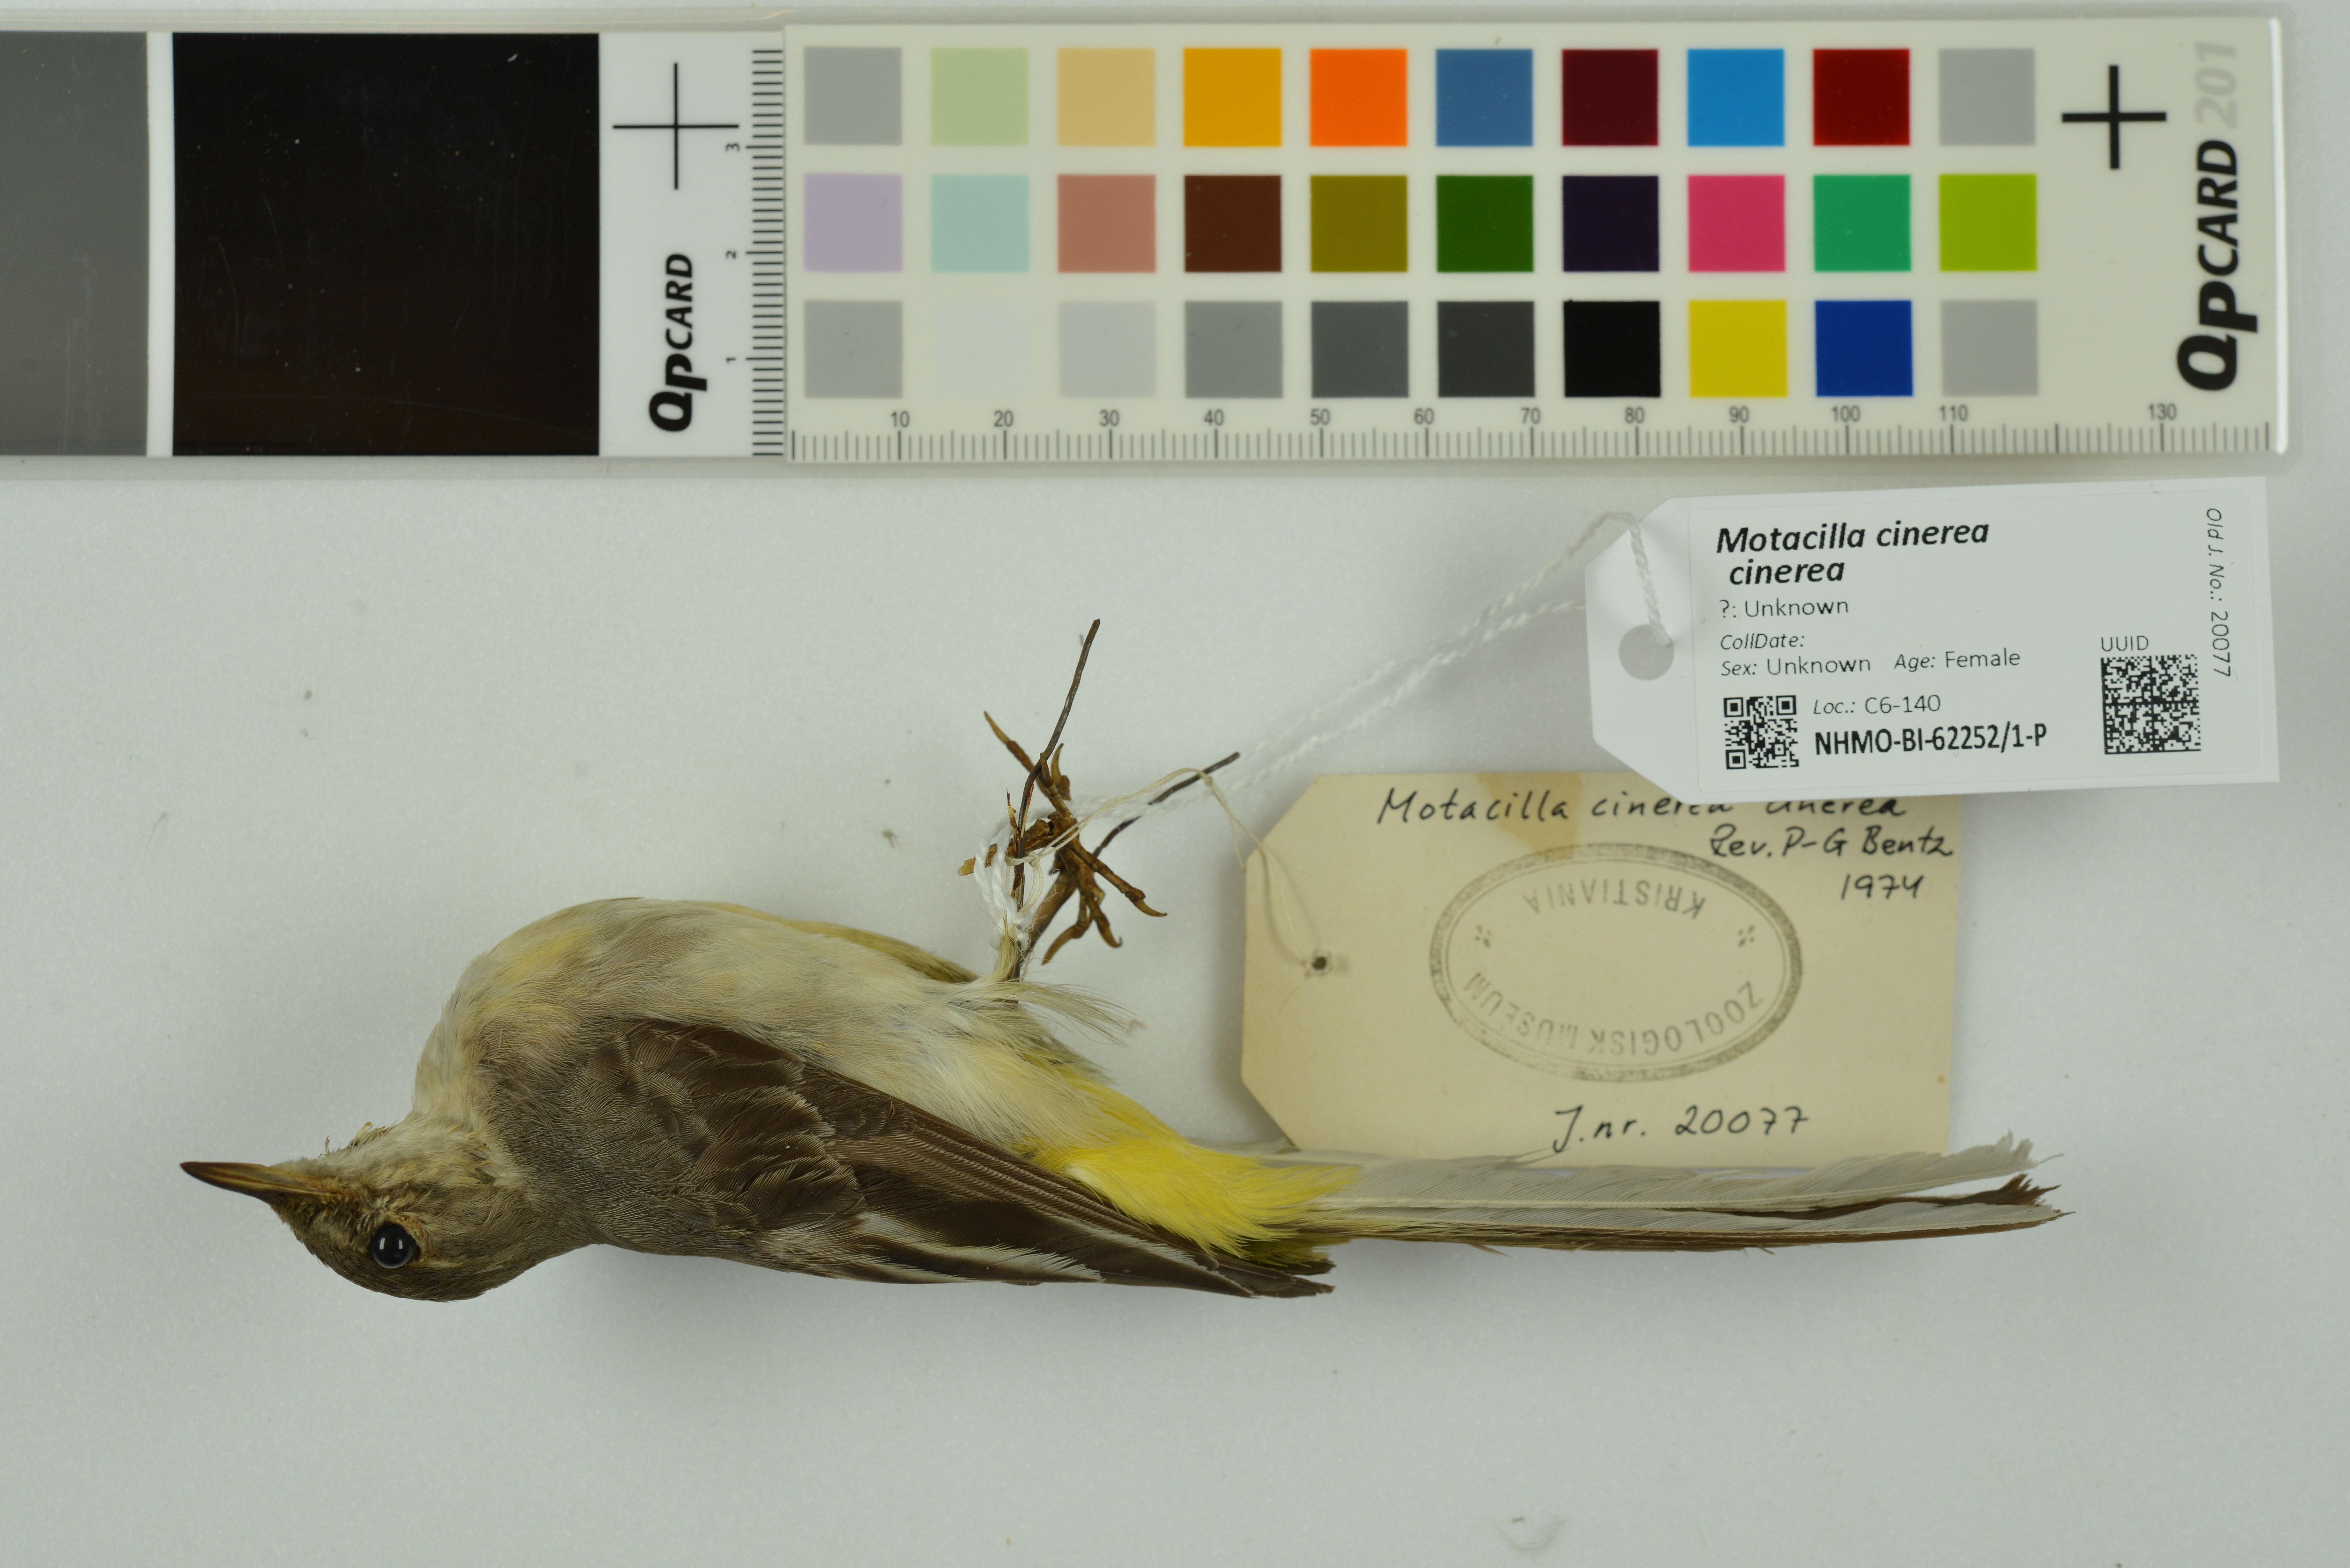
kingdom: Animalia
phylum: Chordata
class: Aves
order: Passeriformes
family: Motacillidae
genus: Motacilla
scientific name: Motacilla cinerea
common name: Grey wagtail
